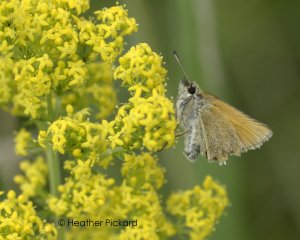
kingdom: Animalia
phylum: Arthropoda
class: Insecta
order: Lepidoptera
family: Hesperiidae
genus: Thymelicus
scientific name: Thymelicus lineola
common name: European Skipper
